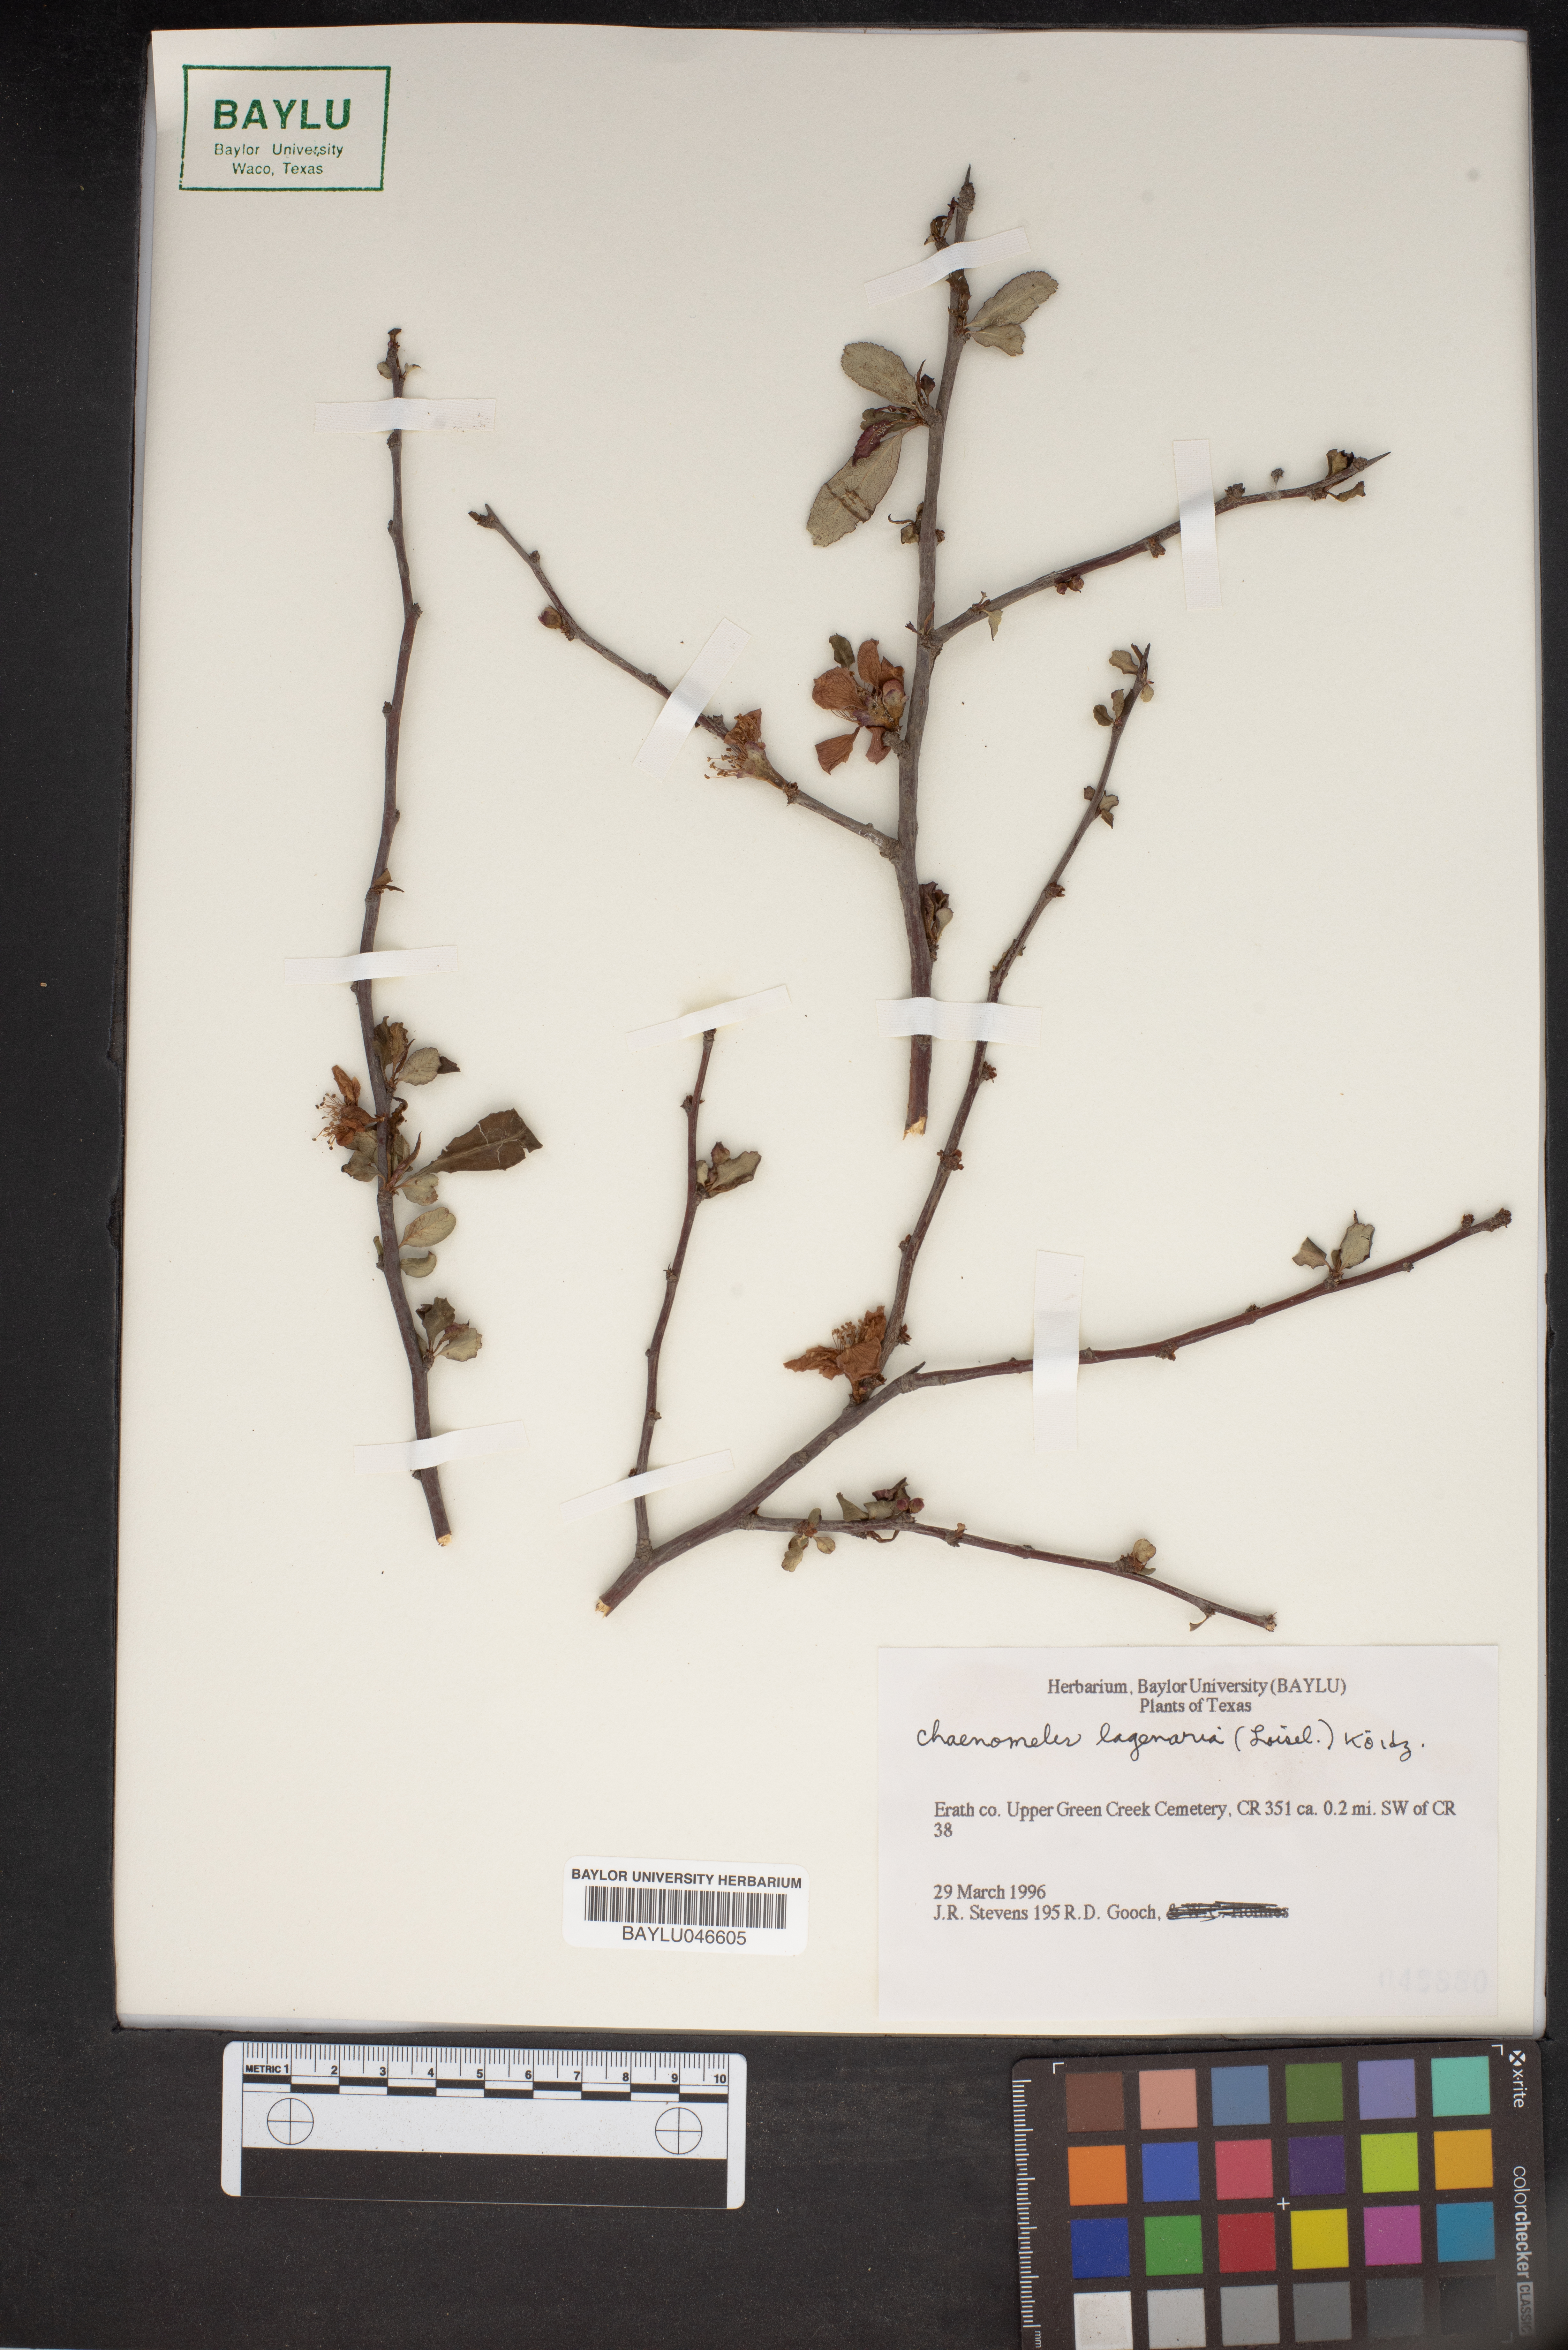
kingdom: Plantae
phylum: Tracheophyta
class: Magnoliopsida
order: Rosales
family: Rosaceae
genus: Chaenomeles
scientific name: Chaenomeles
